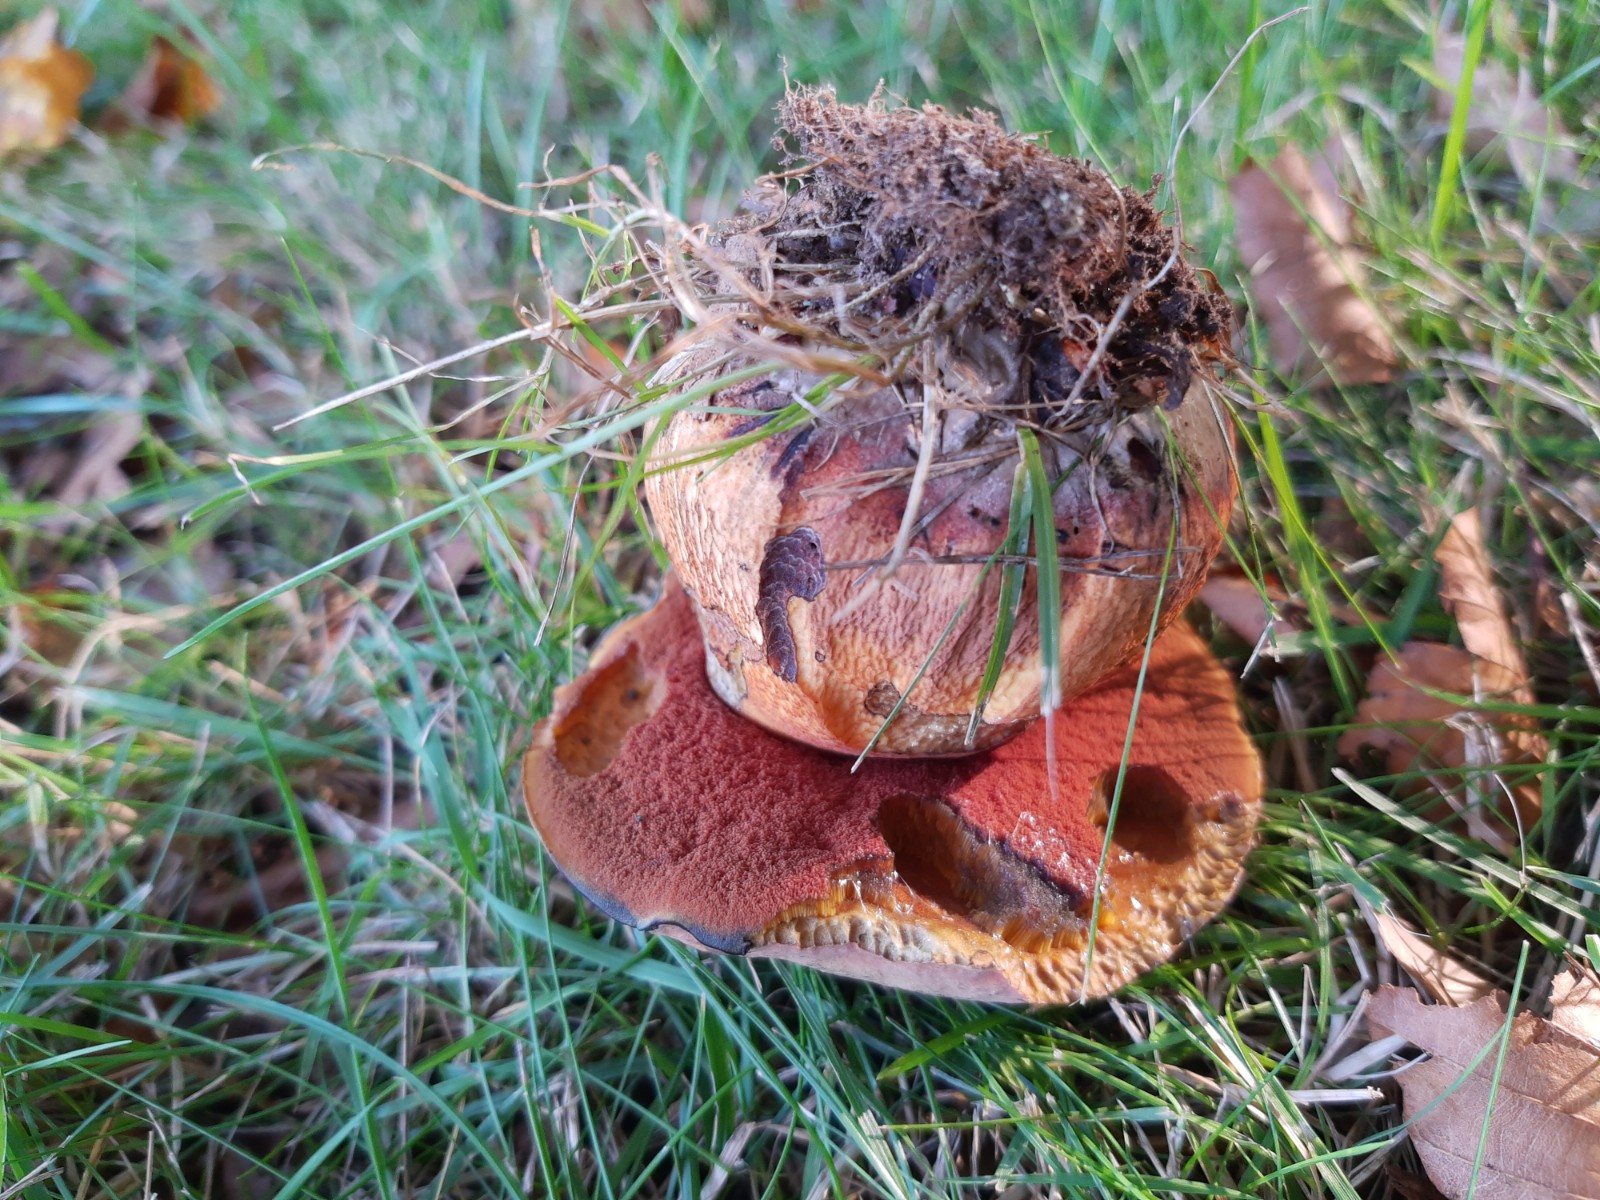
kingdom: Fungi
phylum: Basidiomycota
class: Agaricomycetes
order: Boletales
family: Boletaceae
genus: Suillellus
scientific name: Suillellus luridus
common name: netstokket indigorørhat
